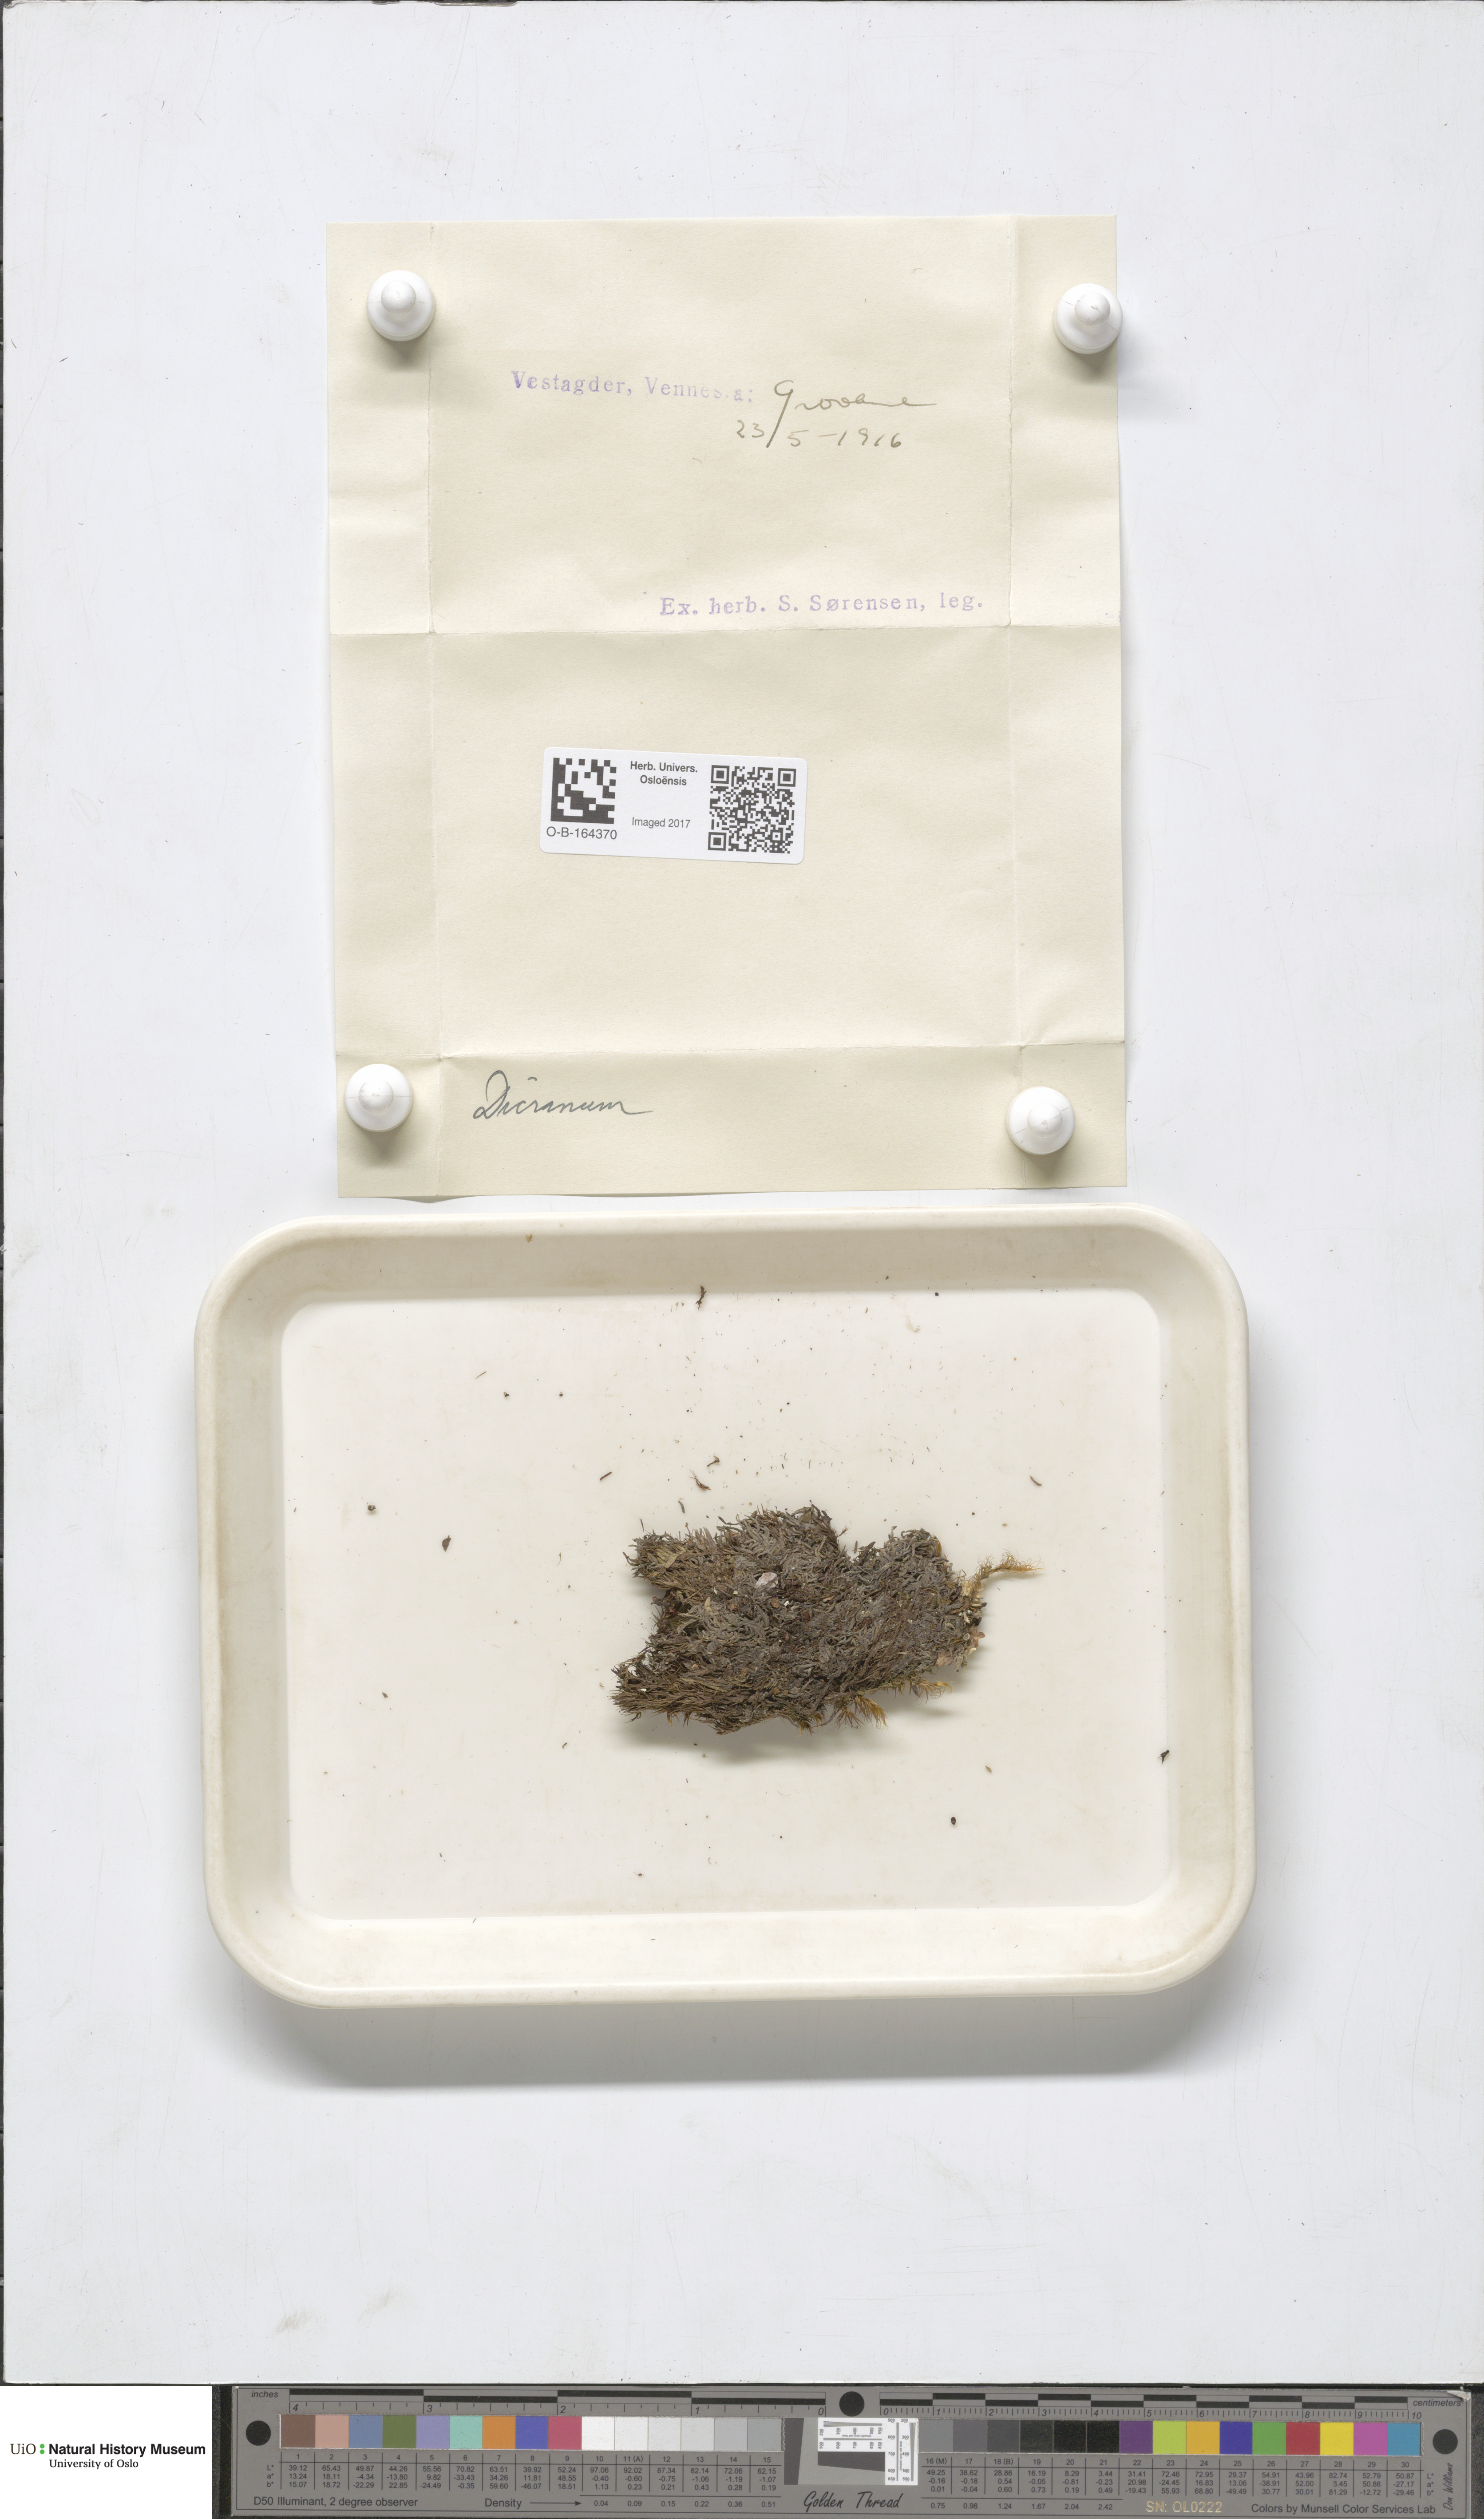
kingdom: Plantae
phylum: Bryophyta
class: Bryopsida
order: Dicranales
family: Dicranaceae
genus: Dicranum
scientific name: Dicranum
